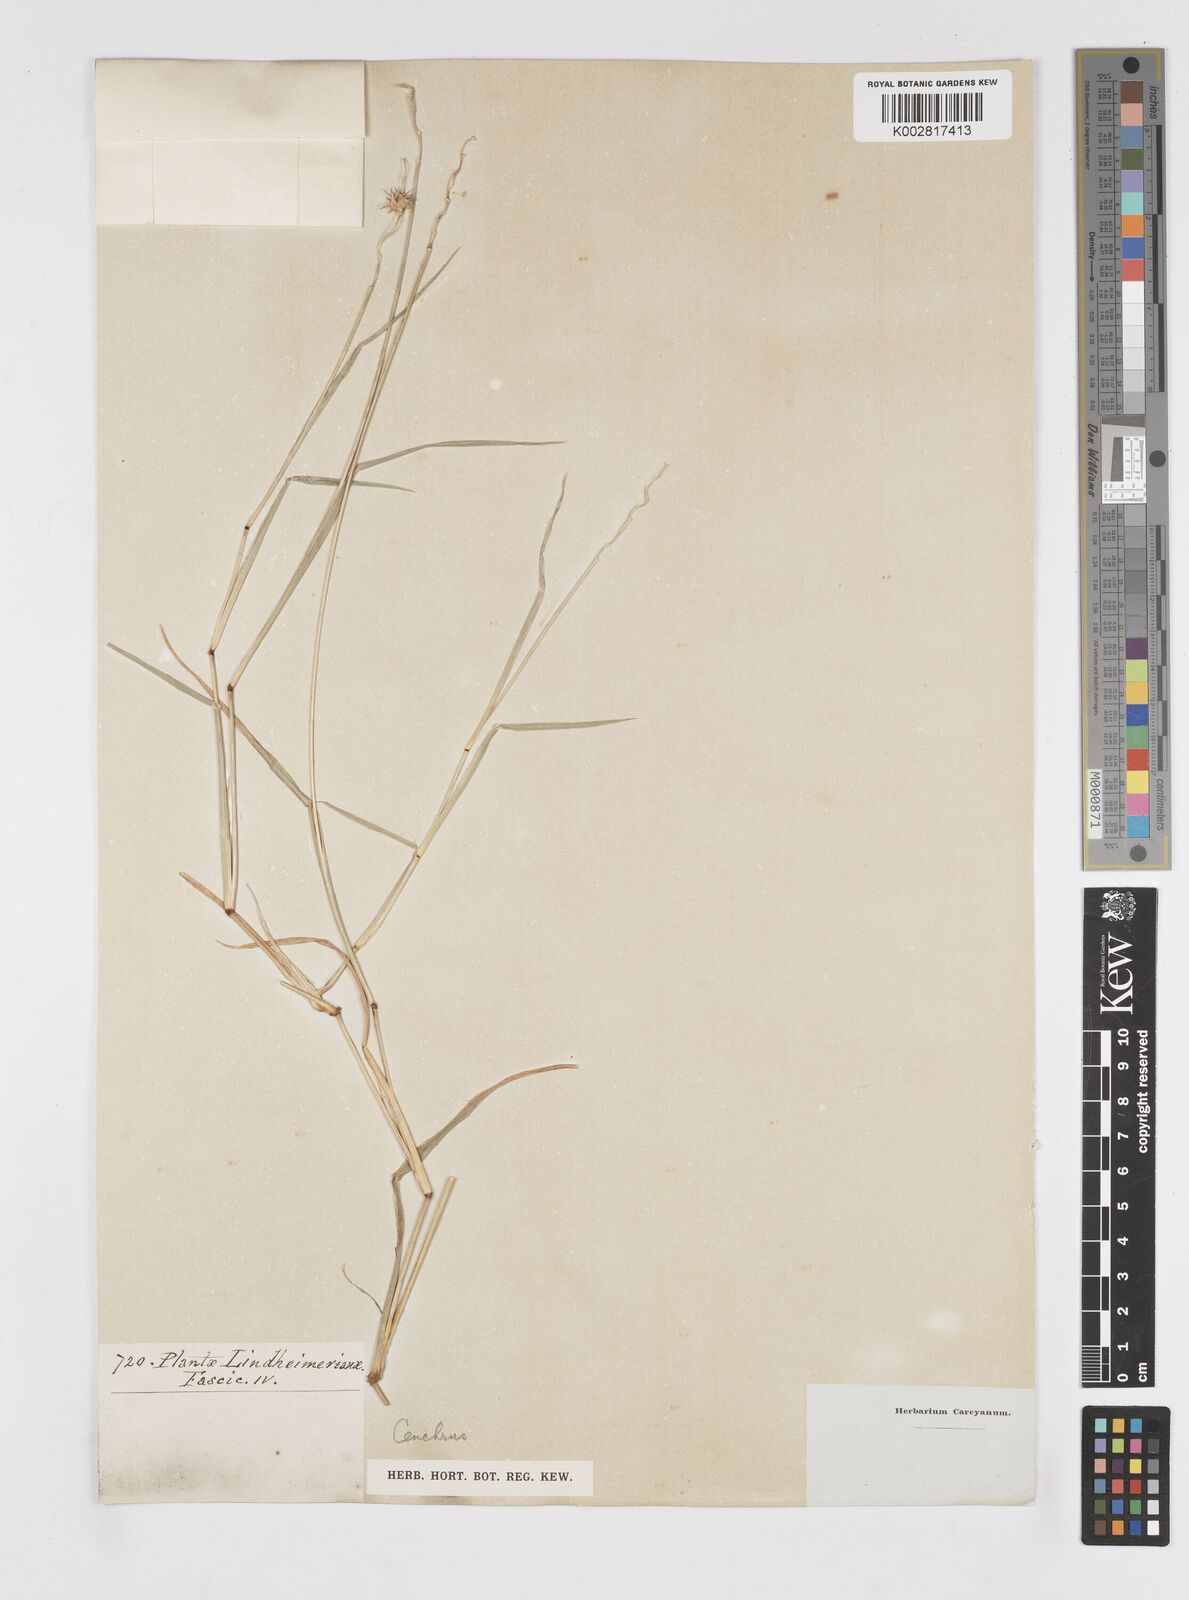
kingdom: Plantae
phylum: Tracheophyta
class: Liliopsida
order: Poales
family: Poaceae
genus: Cenchrus
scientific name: Cenchrus tribuloides
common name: Dune sandbur
